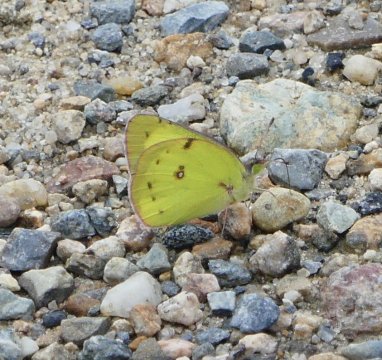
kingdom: Animalia
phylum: Arthropoda
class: Insecta
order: Lepidoptera
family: Pieridae
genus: Colias
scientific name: Colias philodice
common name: Clouded Sulphur
